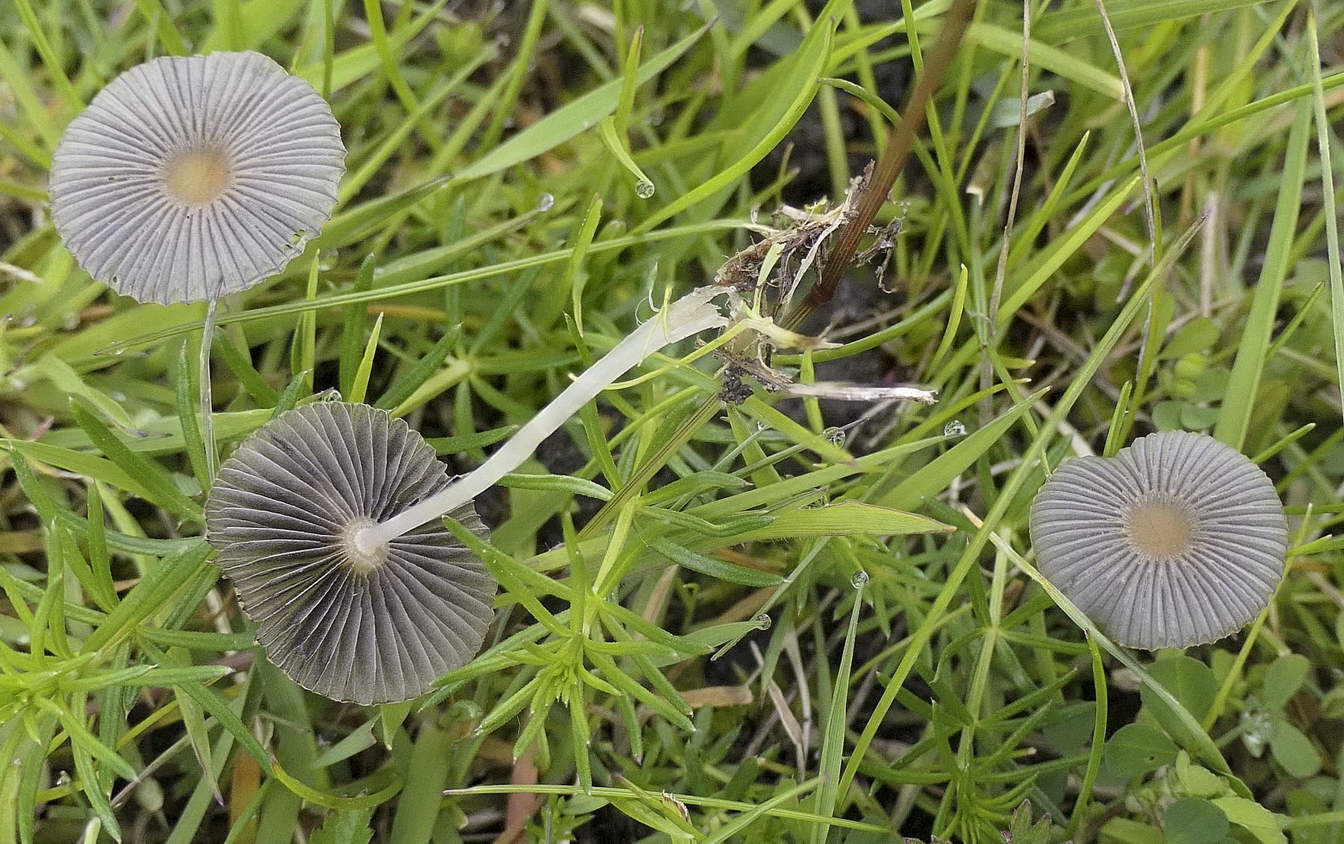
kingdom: Fungi
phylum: Basidiomycota
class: Agaricomycetes
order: Agaricales
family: Psathyrellaceae
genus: Parasola
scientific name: Parasola
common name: hjulhat
